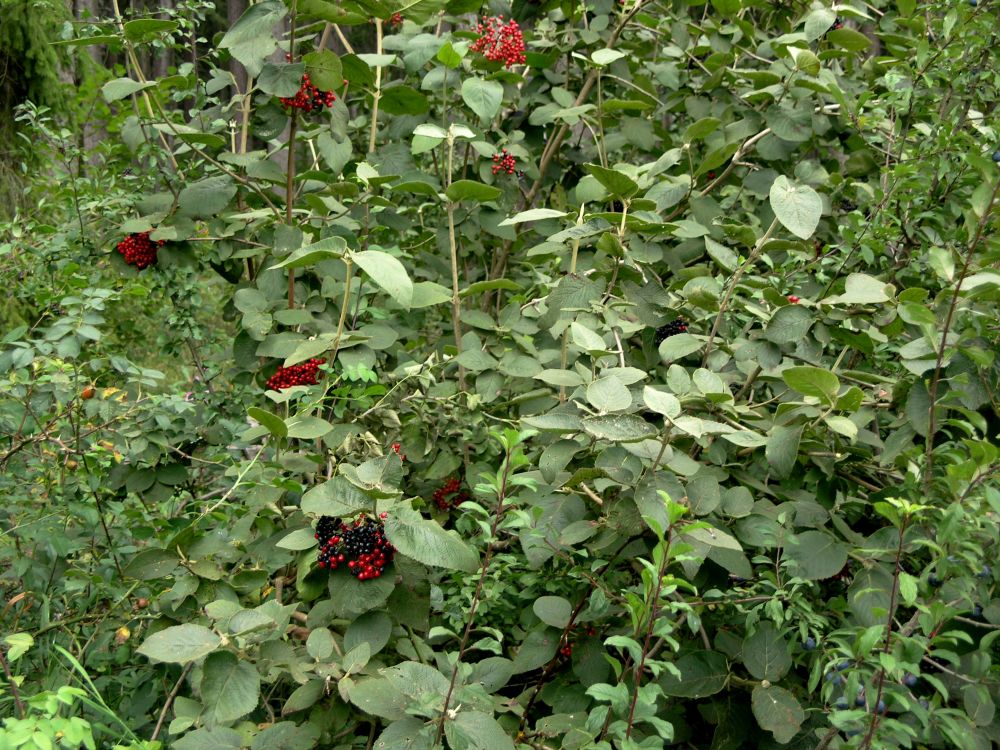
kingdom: Plantae
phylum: Tracheophyta
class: Magnoliopsida
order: Dipsacales
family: Viburnaceae
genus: Viburnum
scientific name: Viburnum lantana
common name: Wayfaring tree
